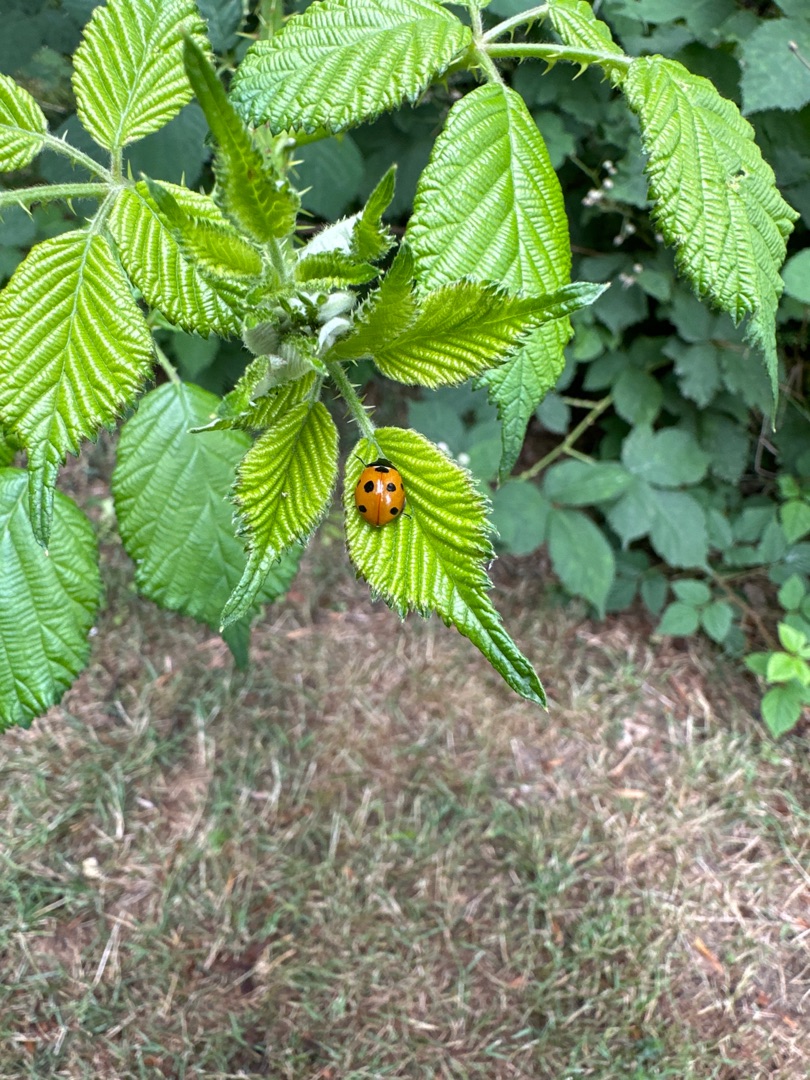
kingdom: Animalia
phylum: Arthropoda
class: Insecta
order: Coleoptera
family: Coccinellidae
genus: Coccinella
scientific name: Coccinella septempunctata
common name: Syvplettet mariehøne
